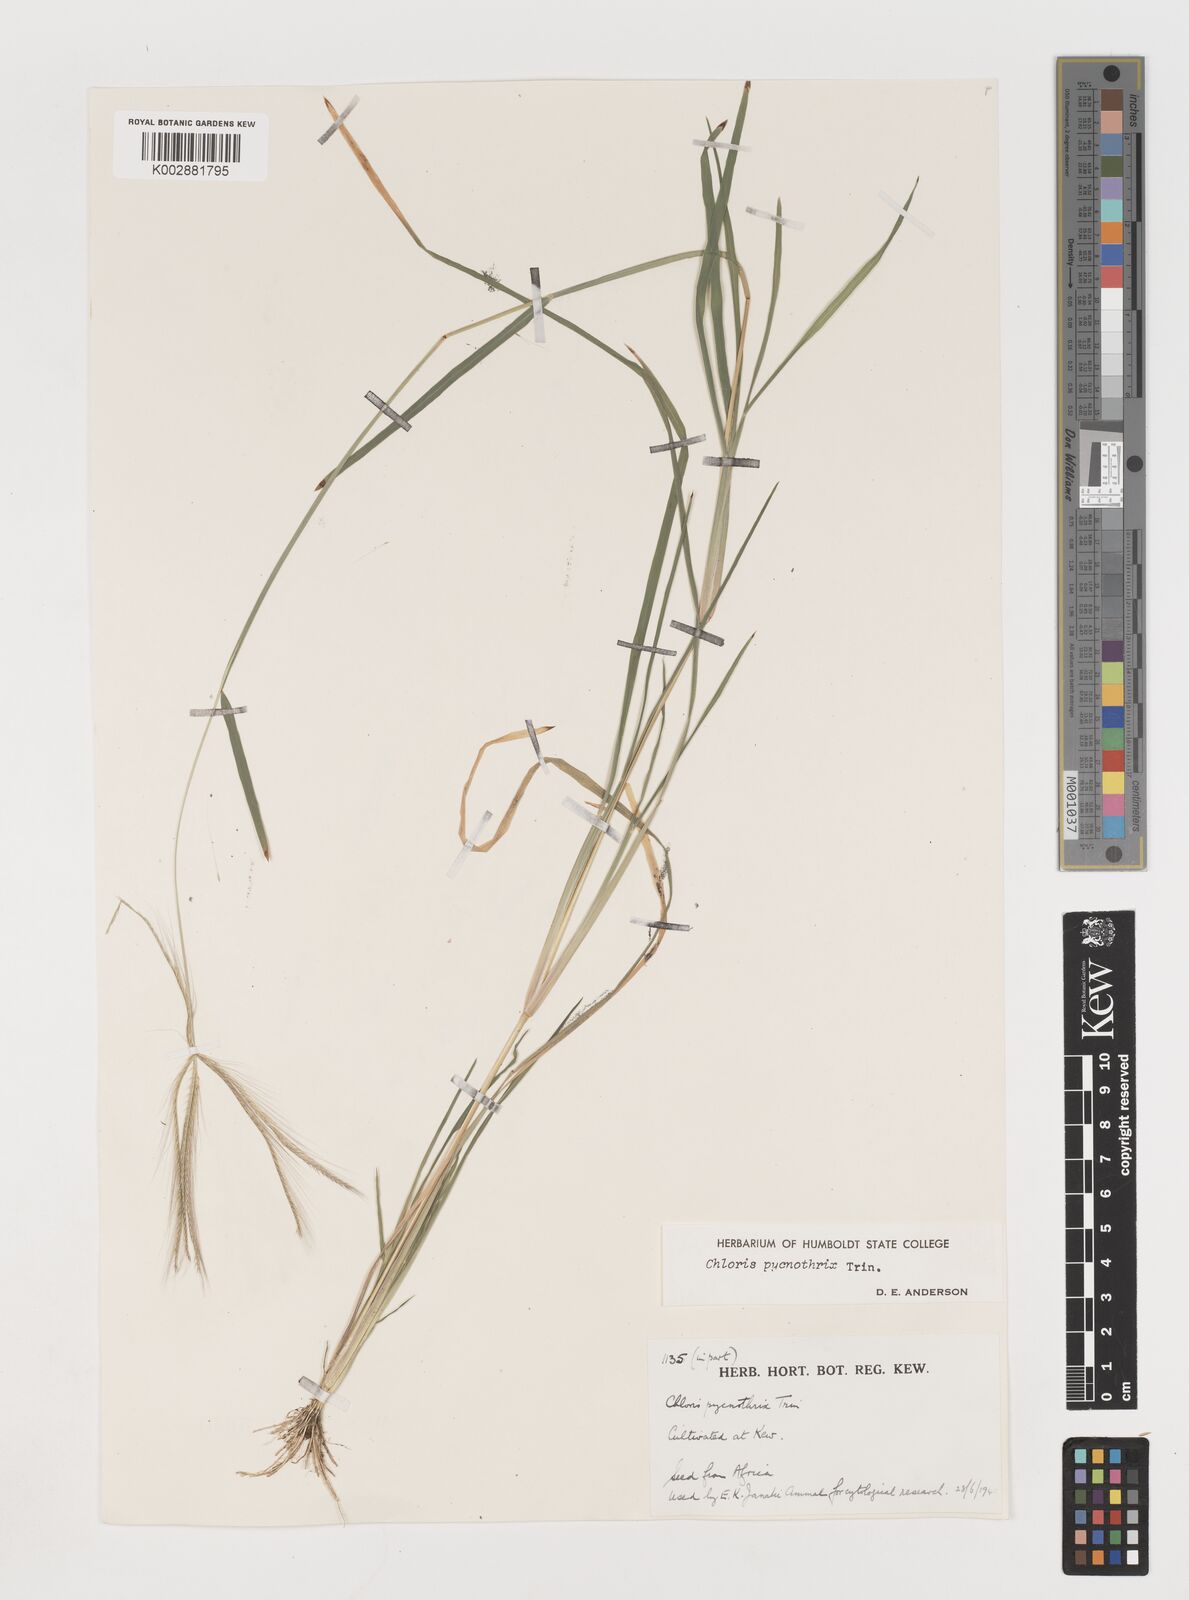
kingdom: Plantae
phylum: Tracheophyta
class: Liliopsida
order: Poales
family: Poaceae
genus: Chloris
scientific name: Chloris pycnothrix
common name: Spiderweb chloris
